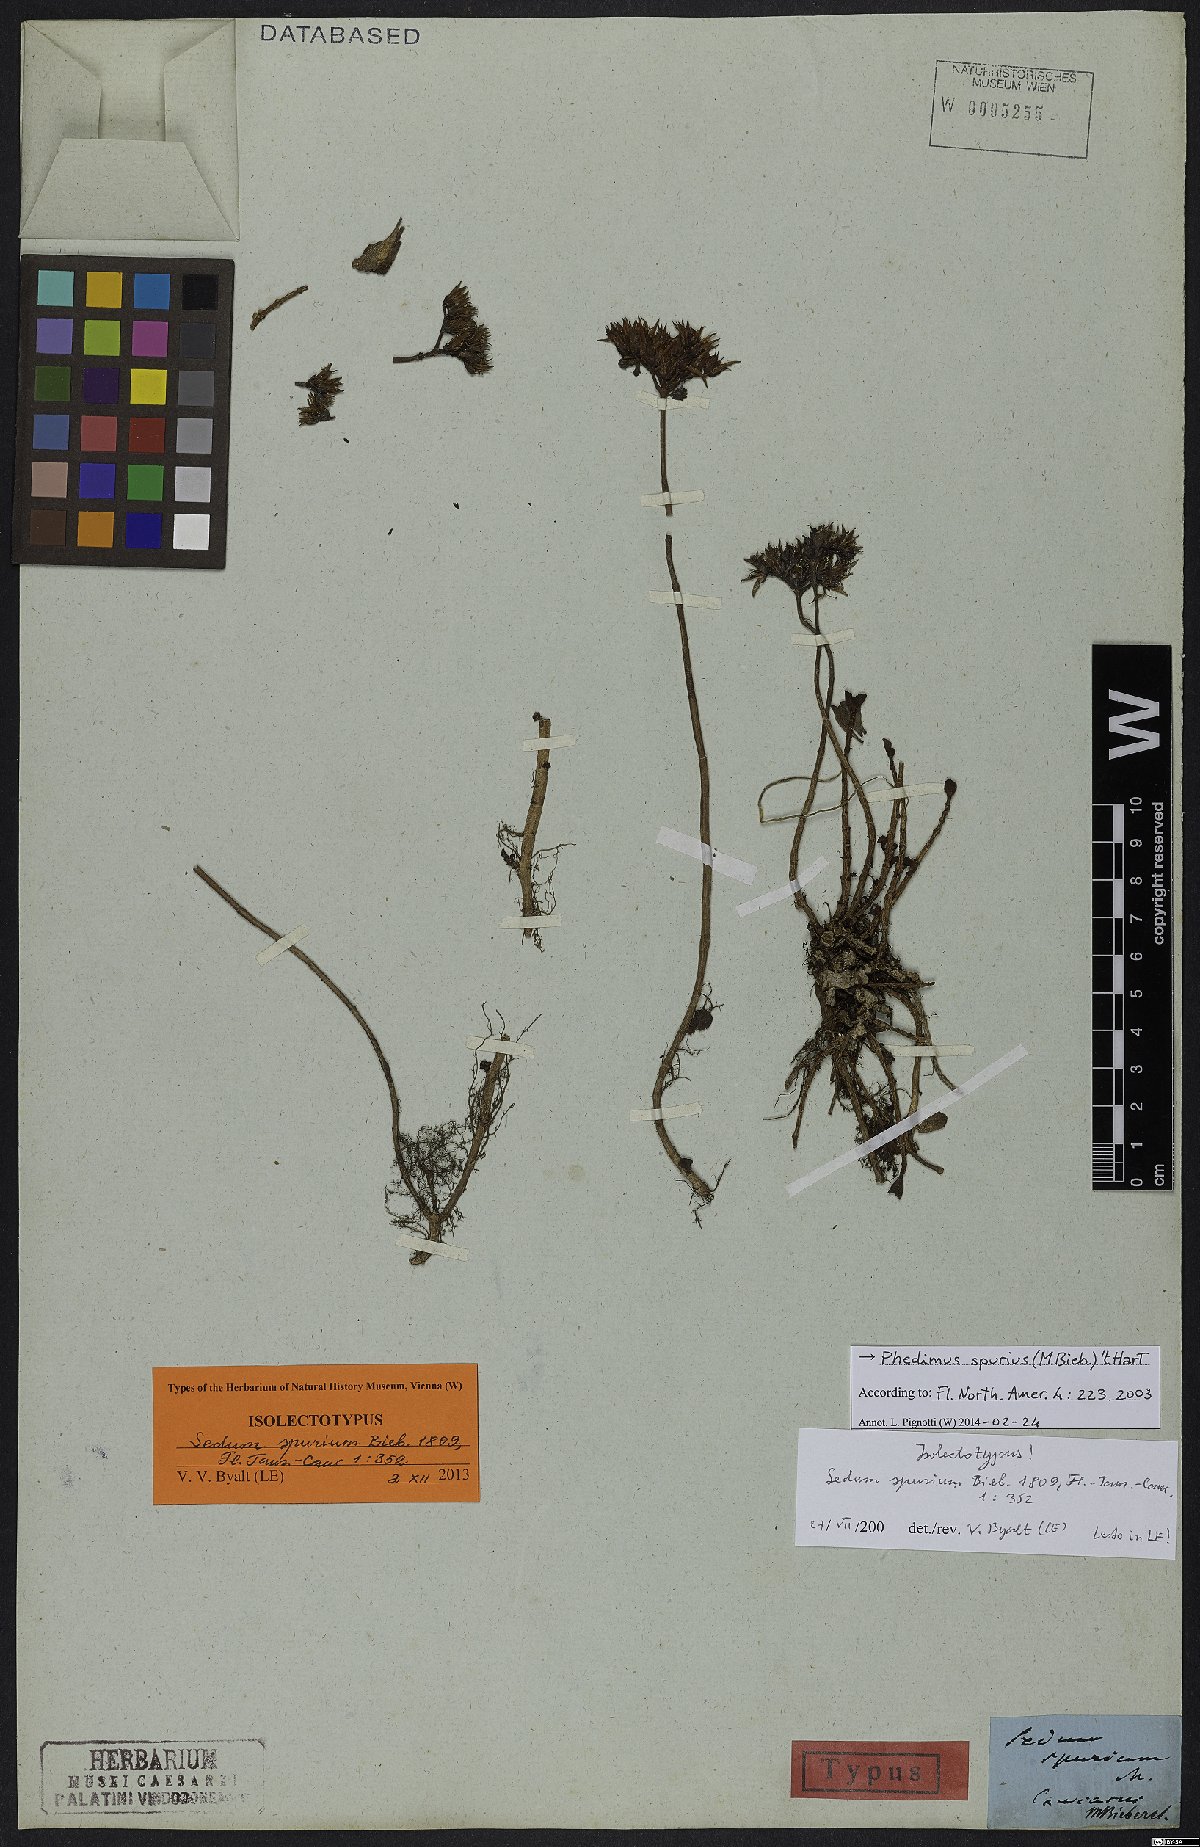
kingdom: Plantae
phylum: Tracheophyta
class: Magnoliopsida
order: Saxifragales
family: Crassulaceae
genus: Phedimus
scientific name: Phedimus spurius
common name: Caucasian stonecrop
